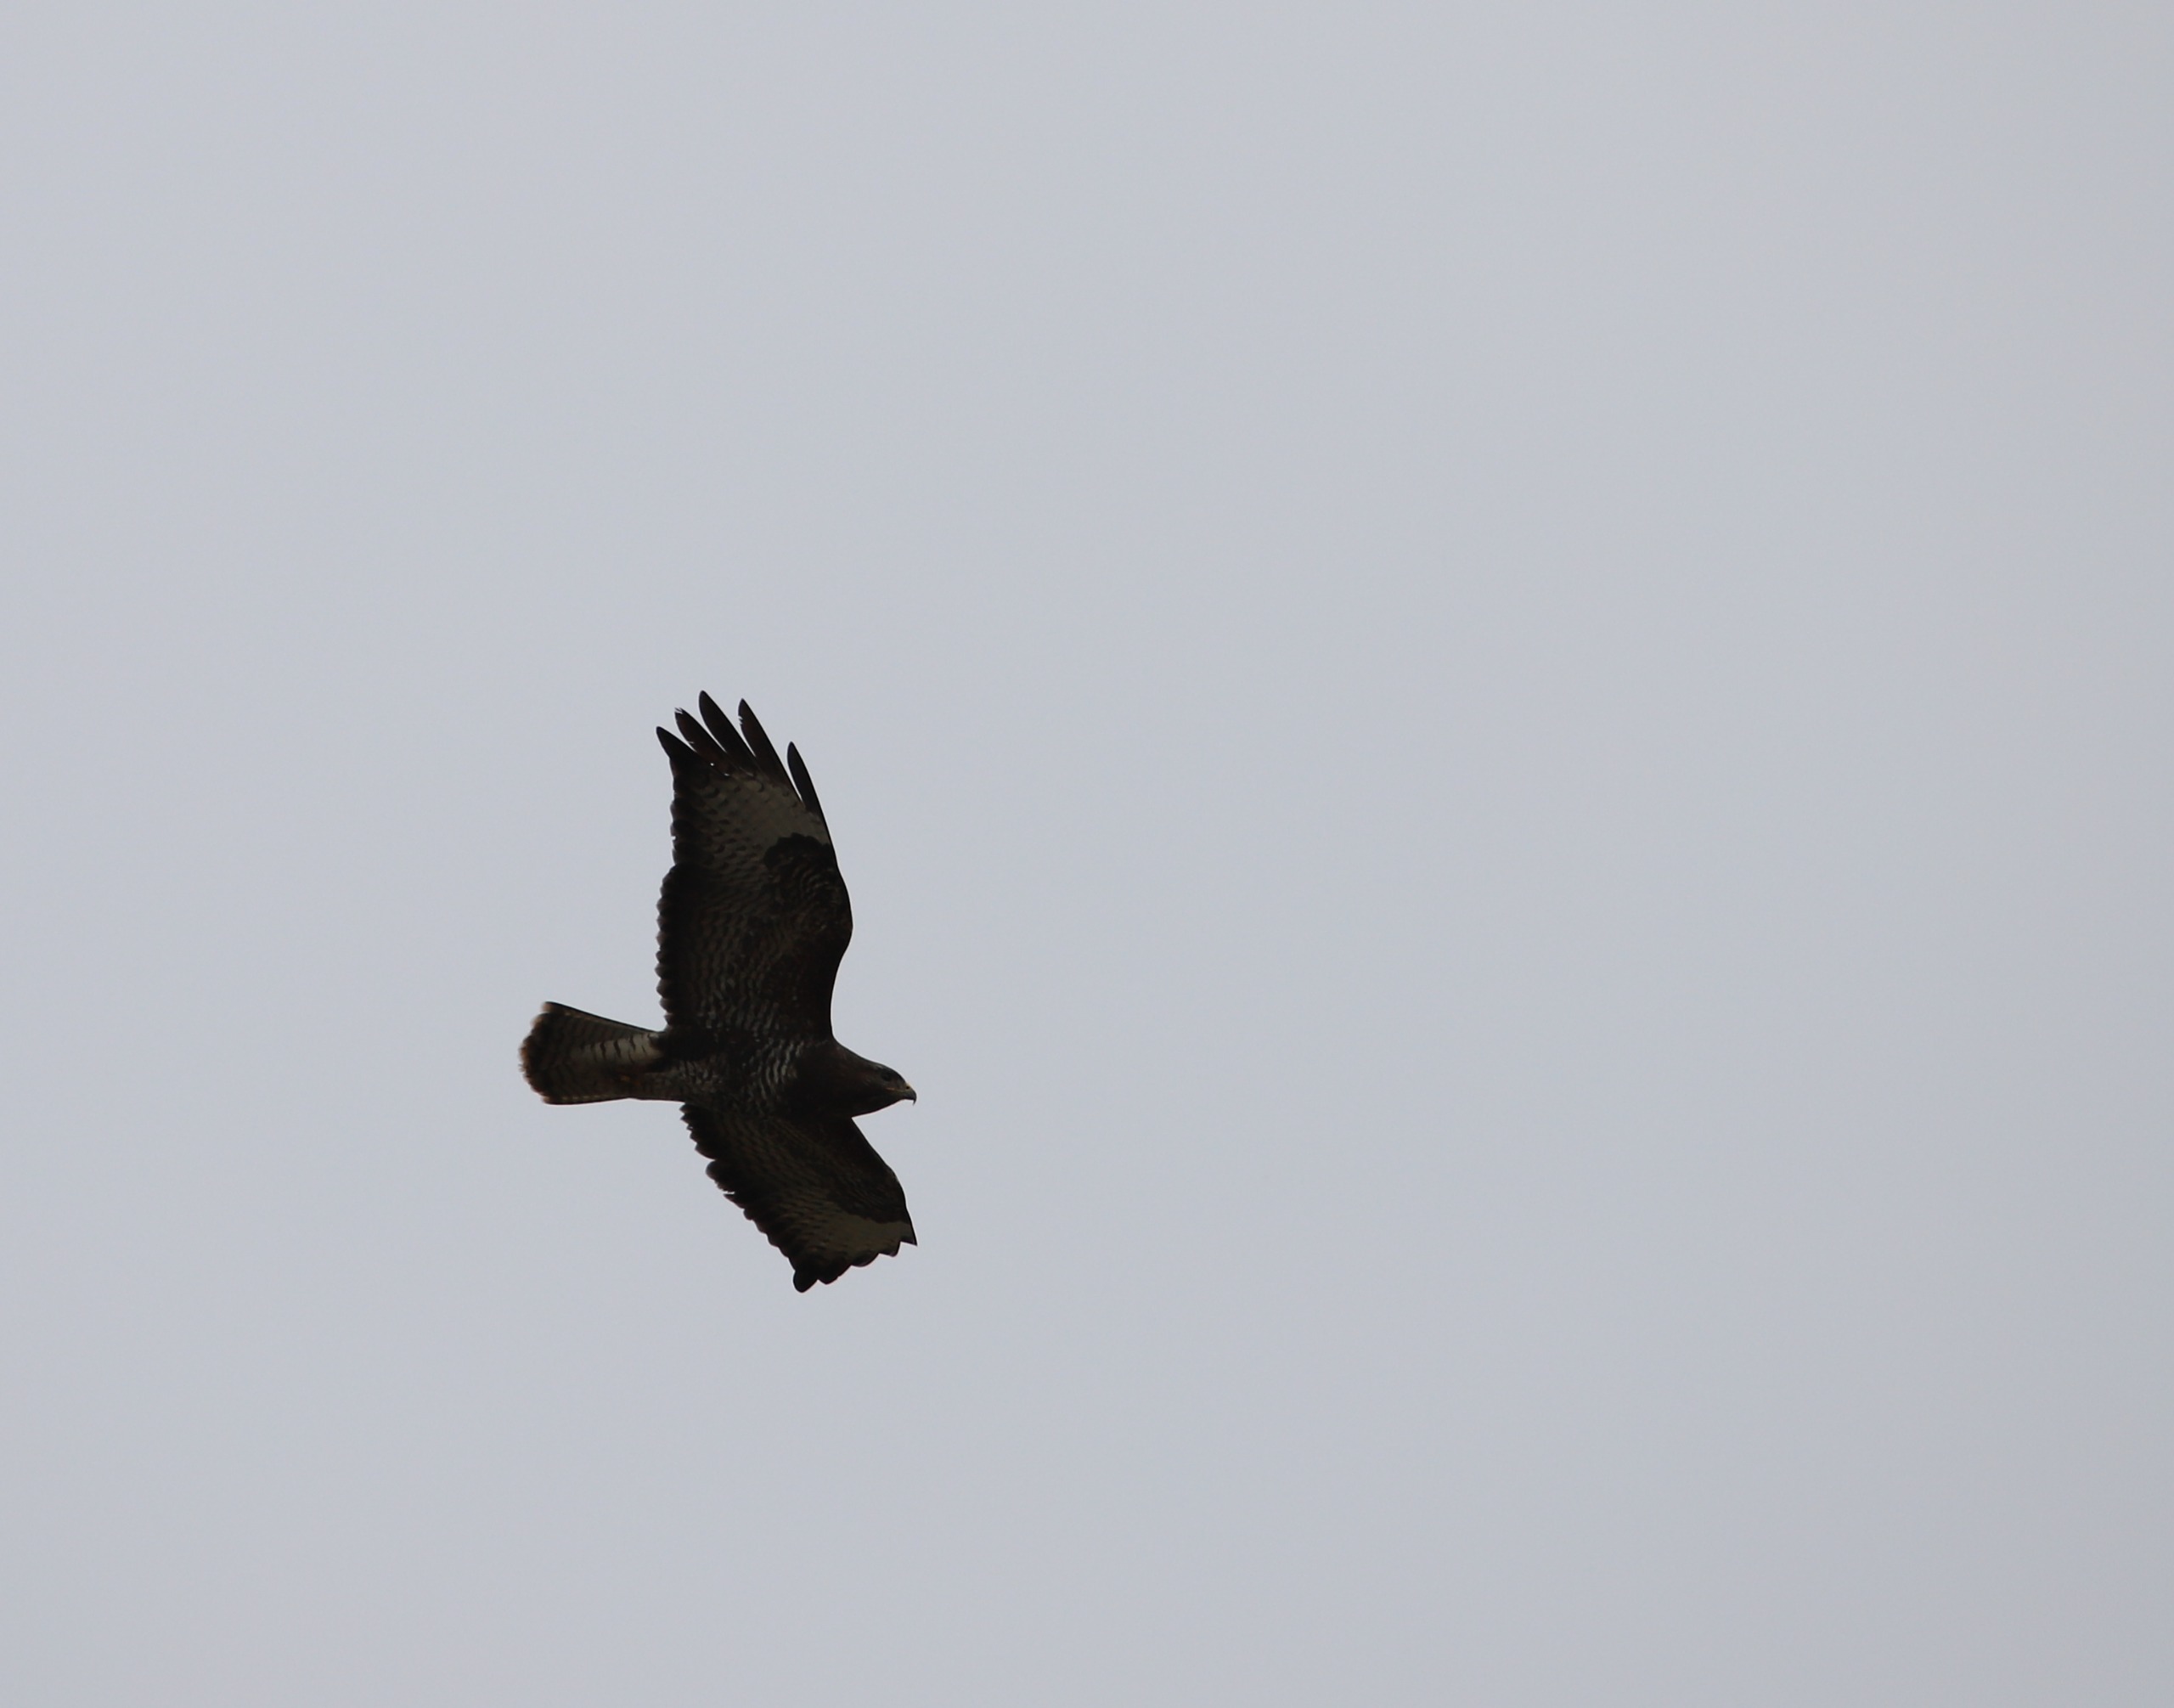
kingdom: Animalia
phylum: Chordata
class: Aves
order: Accipitriformes
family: Accipitridae
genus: Buteo
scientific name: Buteo buteo
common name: Musvåge
